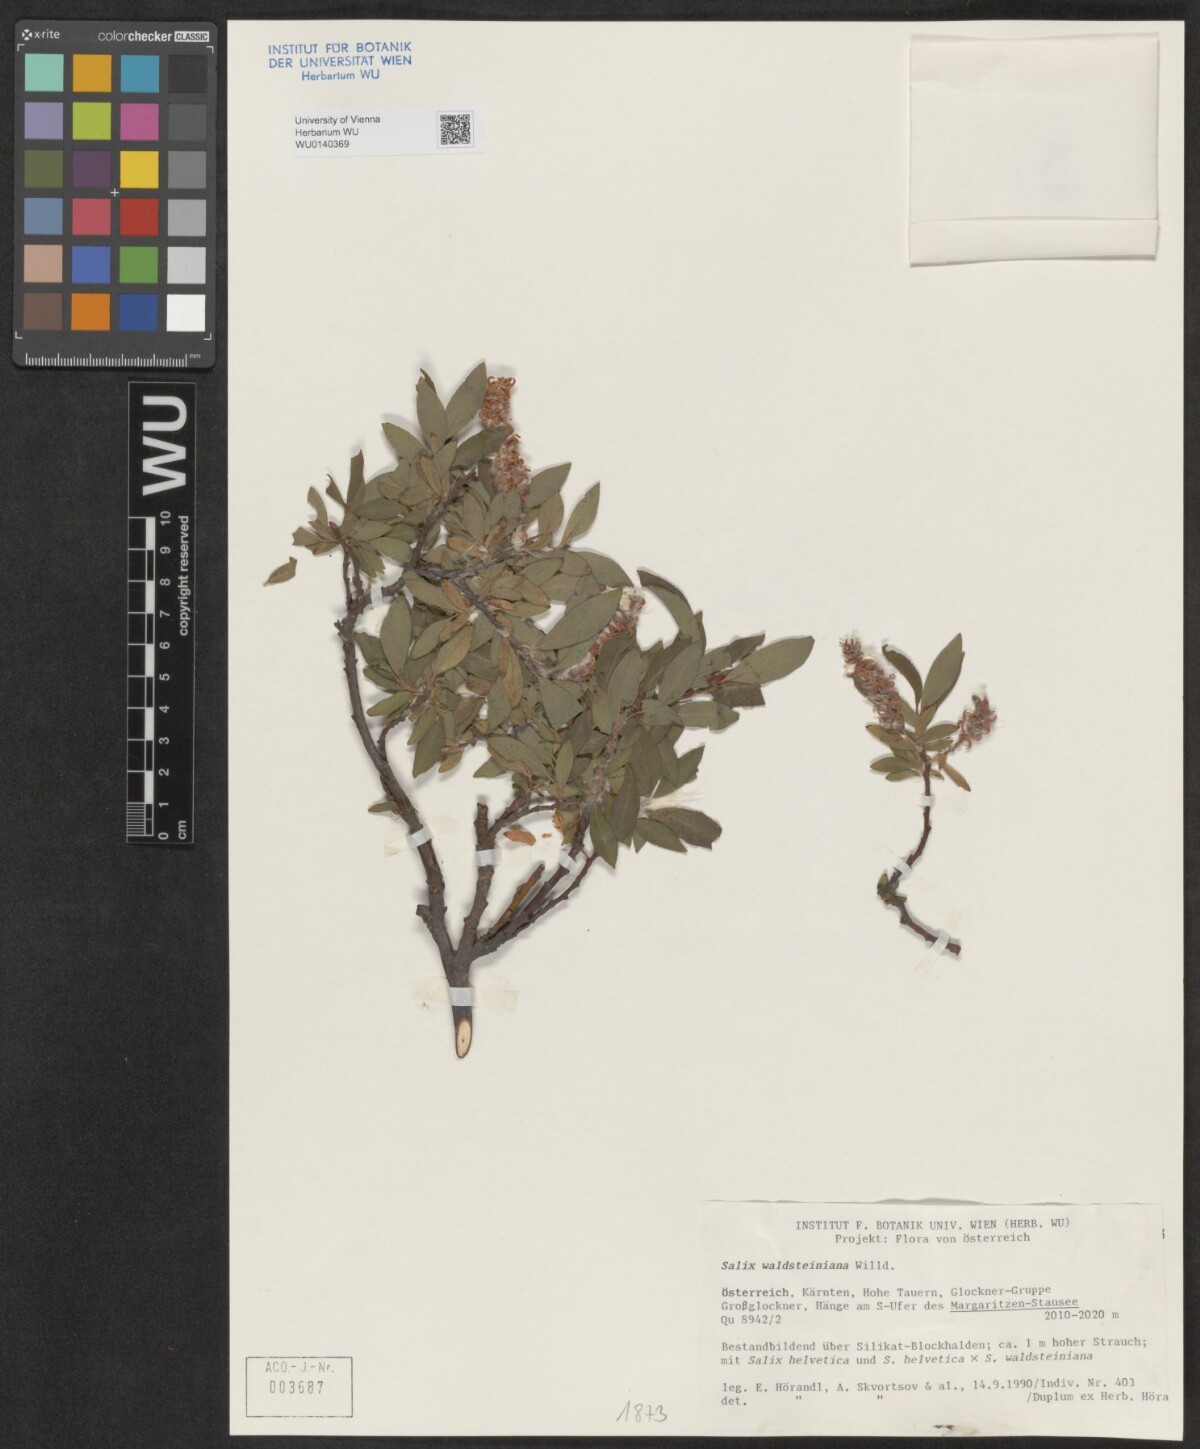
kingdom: Plantae
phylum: Tracheophyta
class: Magnoliopsida
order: Malpighiales
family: Salicaceae
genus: Salix
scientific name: Salix waldsteiniana
